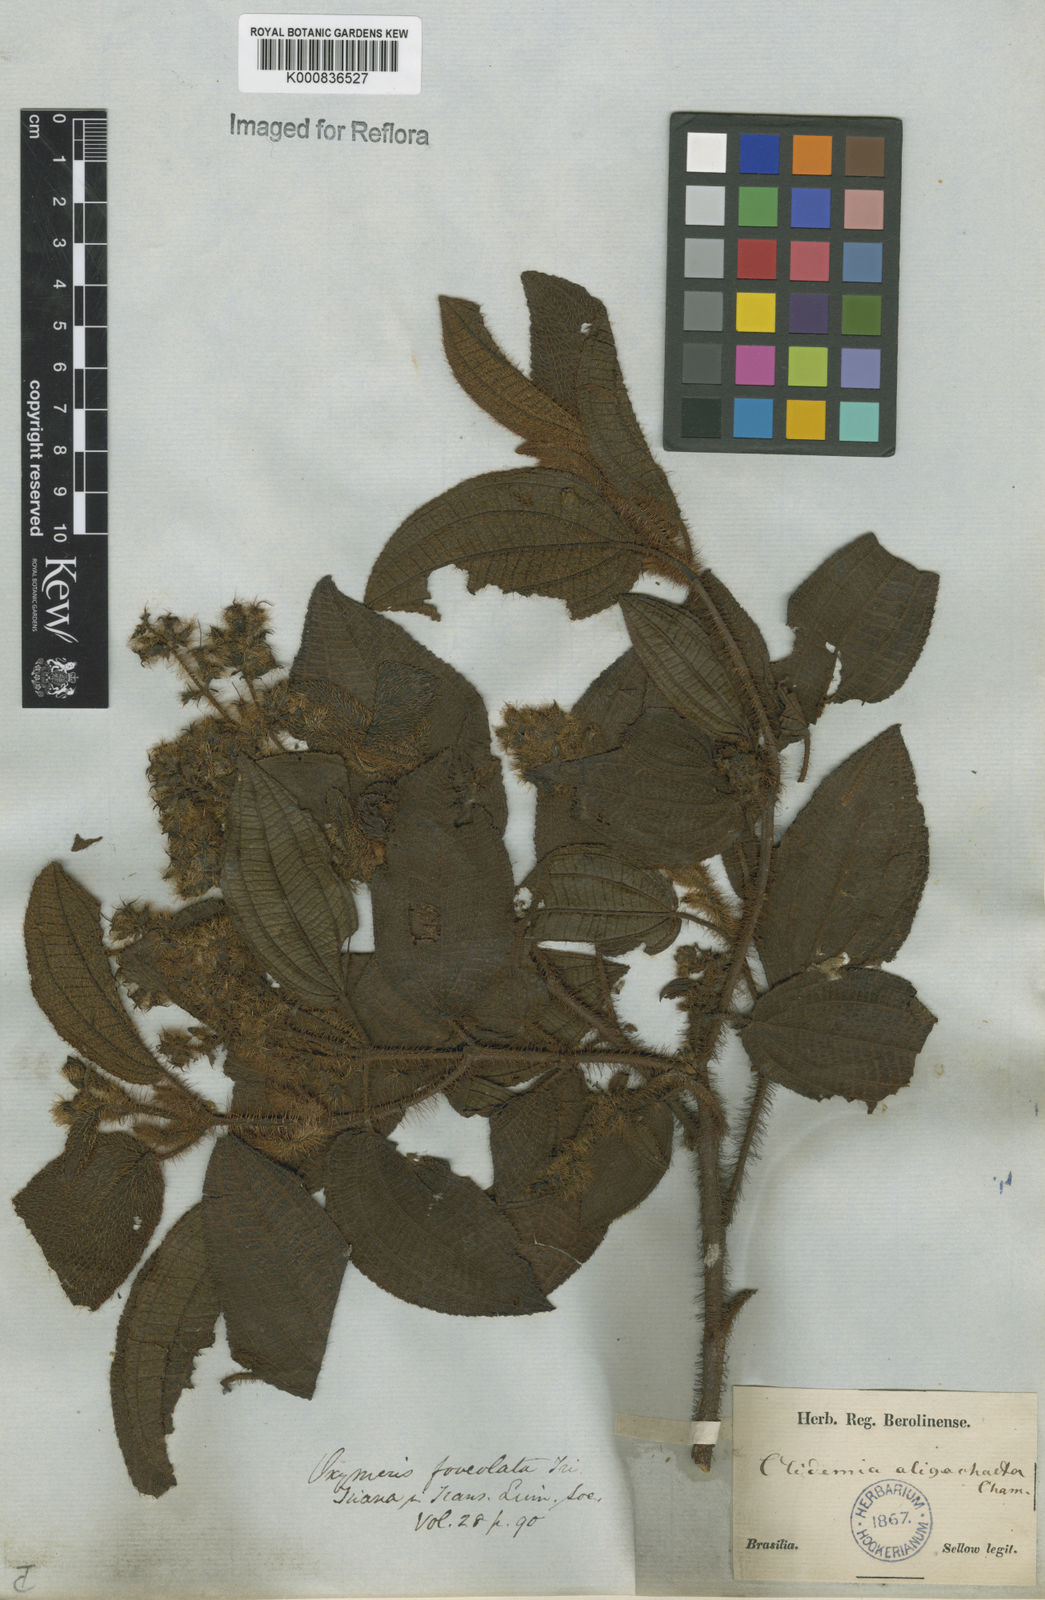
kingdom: Plantae
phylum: Tracheophyta
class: Magnoliopsida
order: Myrtales
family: Melastomataceae
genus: Miconia
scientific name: Miconia oligochaeta
